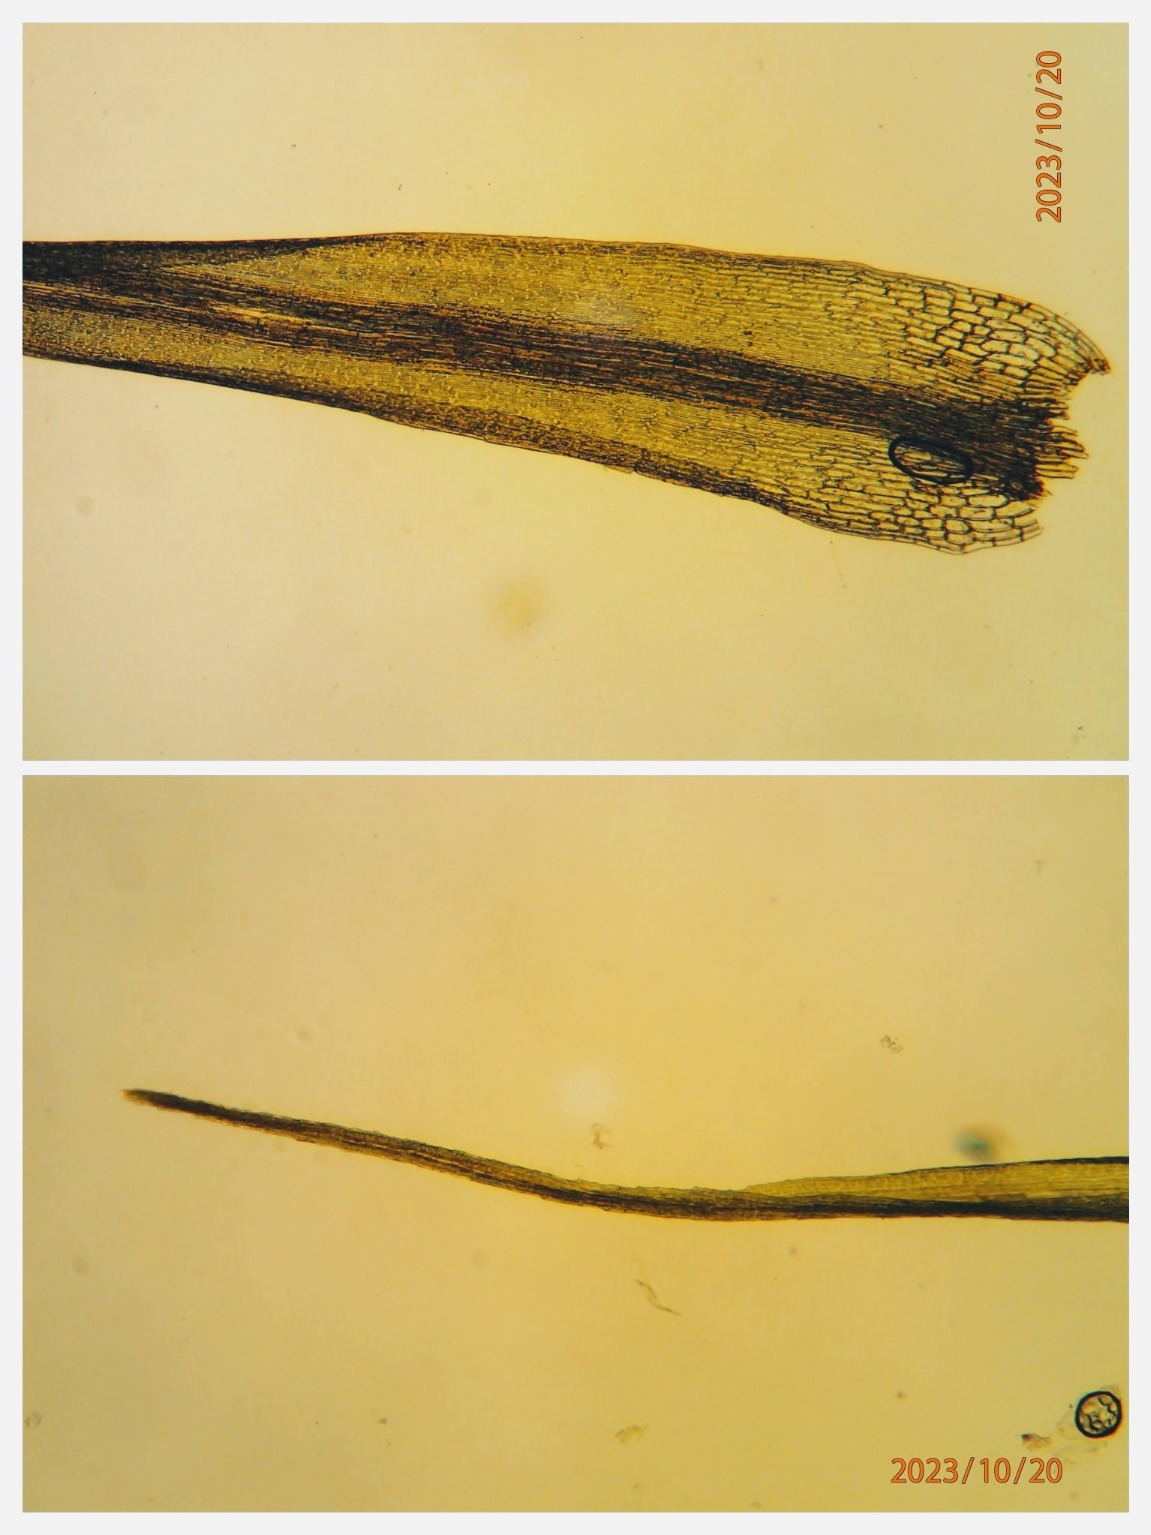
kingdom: Plantae
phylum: Bryophyta
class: Bryopsida
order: Dicranales
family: Dicranaceae
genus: Orthodicranum
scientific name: Orthodicranum tauricum
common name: Skør tyndvinge
